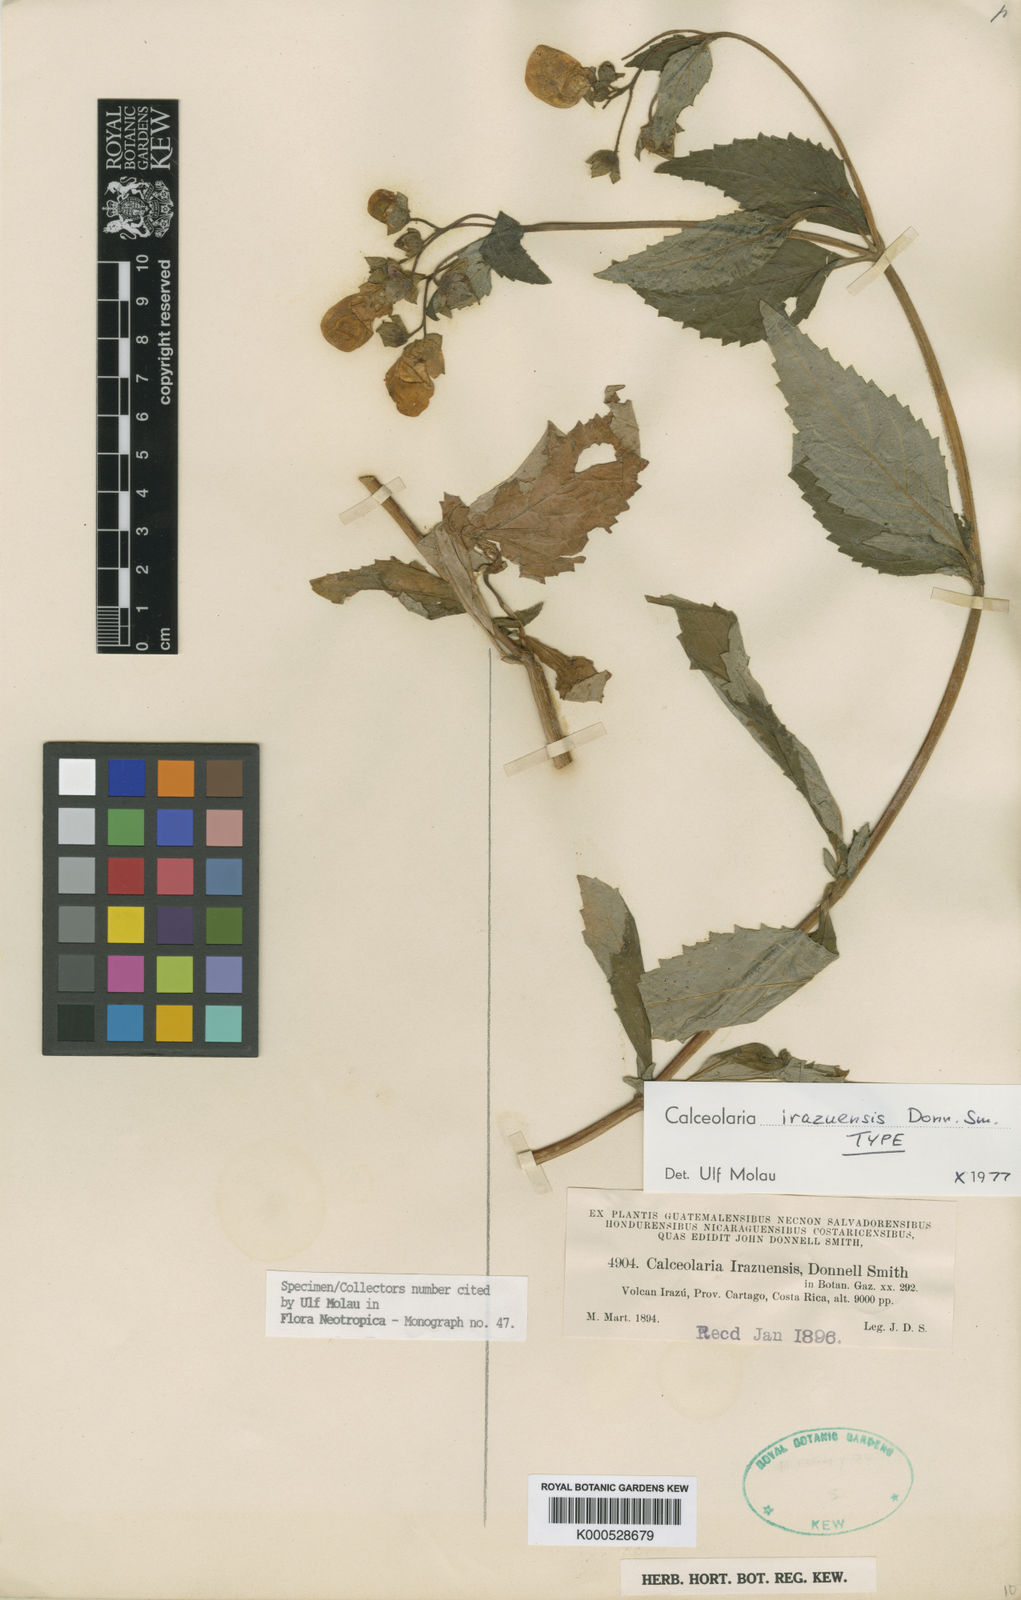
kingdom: Plantae
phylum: Tracheophyta
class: Magnoliopsida
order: Lamiales
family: Calceolariaceae
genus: Calceolaria
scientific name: Calceolaria irazuensis
